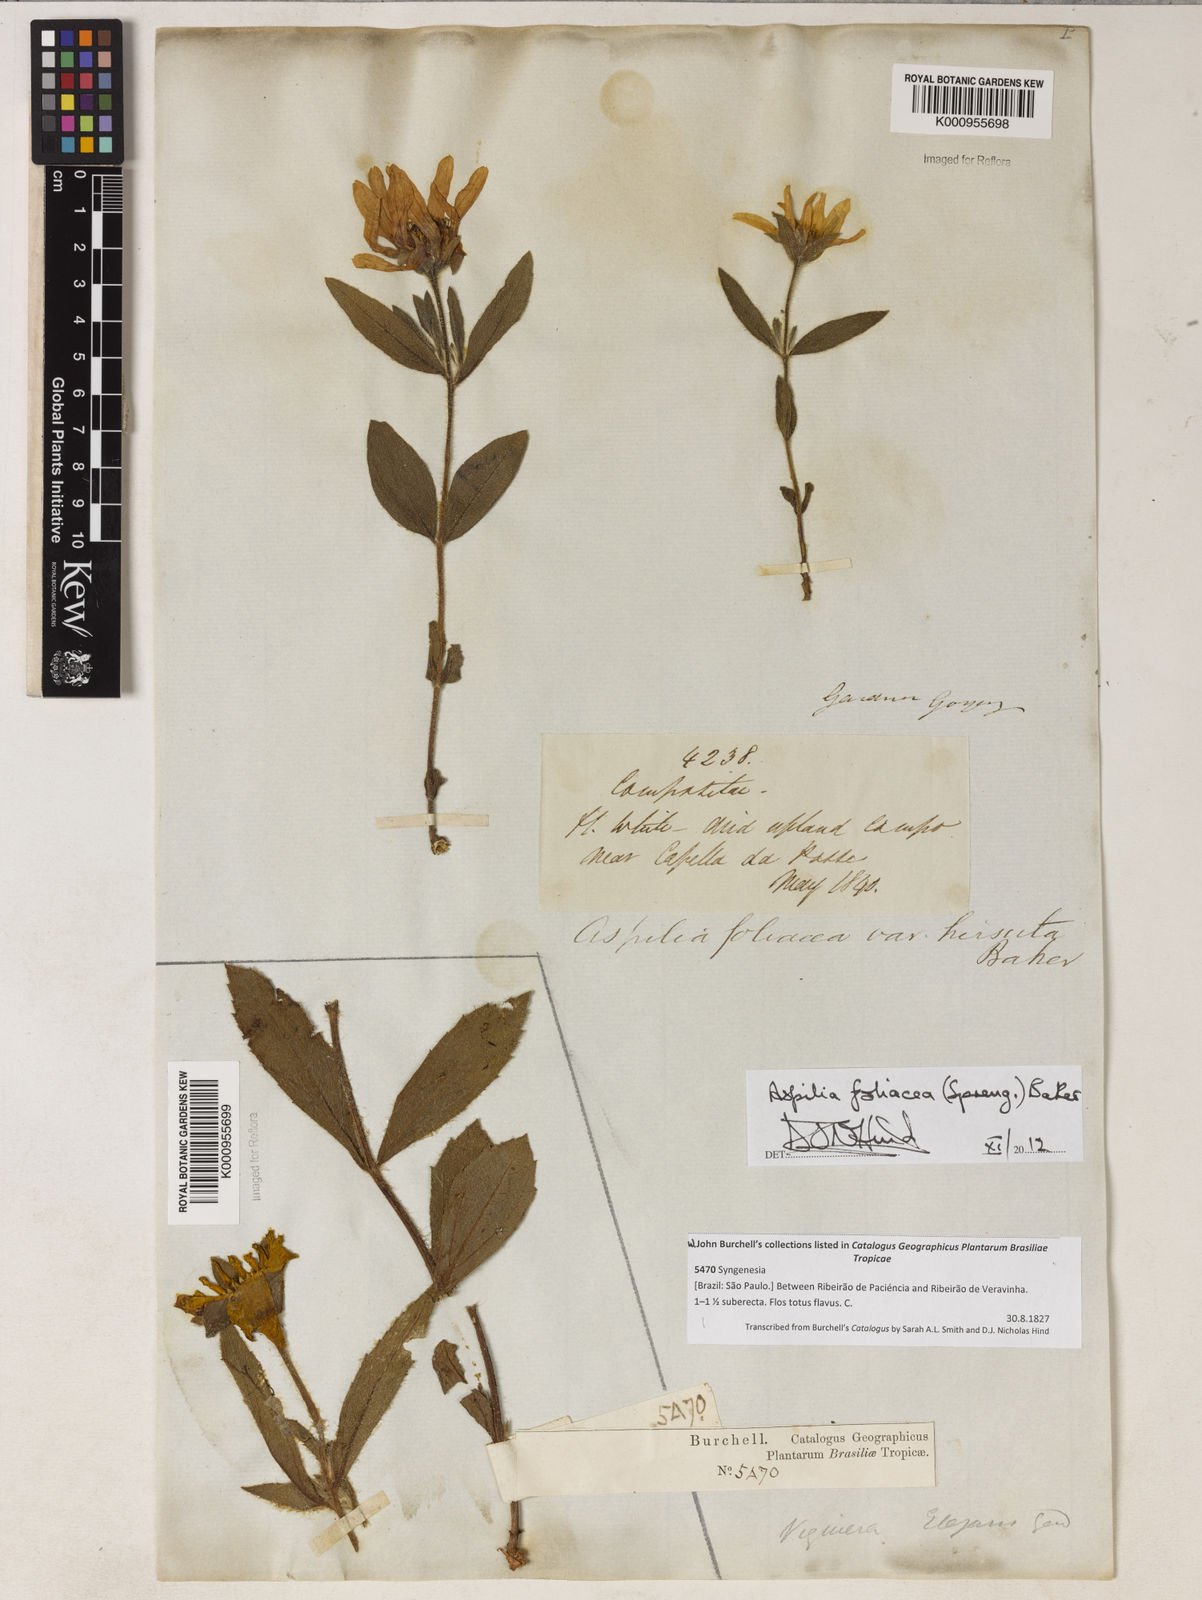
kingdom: Plantae
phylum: Tracheophyta
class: Magnoliopsida
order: Asterales
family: Asteraceae
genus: Wedelia
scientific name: Wedelia foliacea
